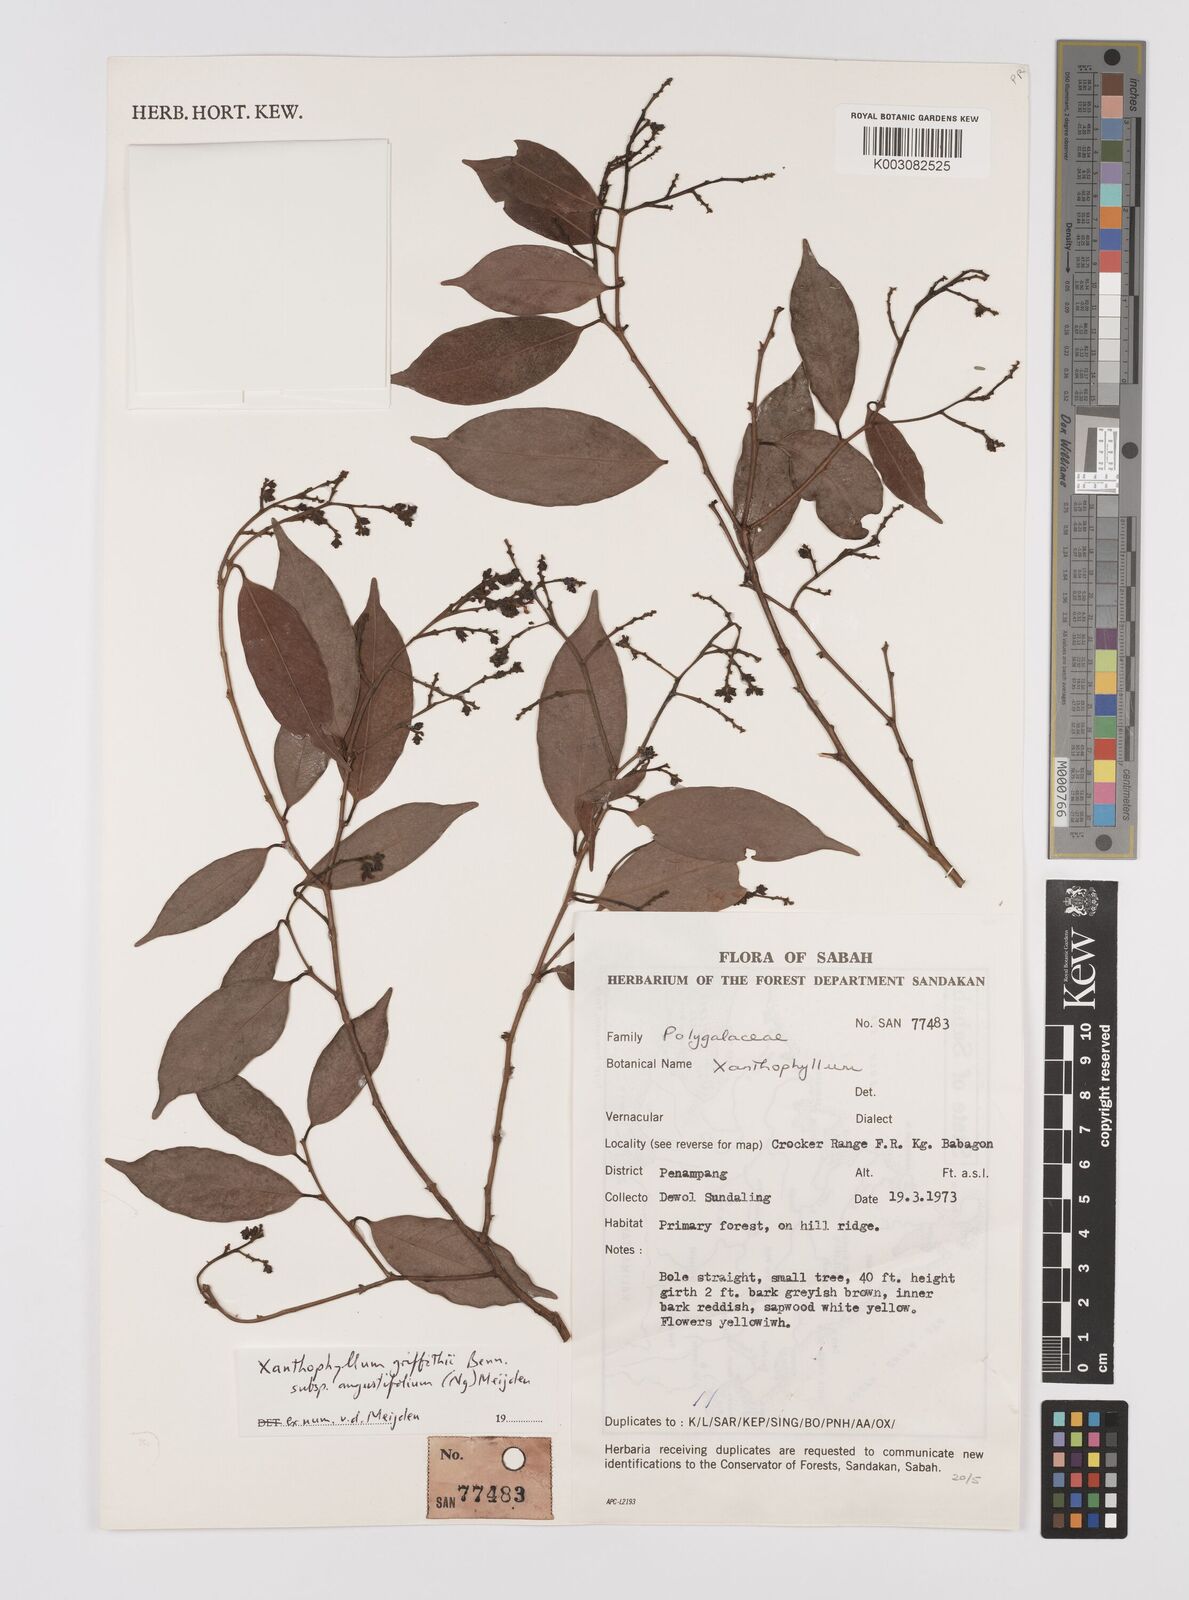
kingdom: Plantae
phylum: Tracheophyta
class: Magnoliopsida
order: Fabales
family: Polygalaceae
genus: Xanthophyllum
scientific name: Xanthophyllum griffithii
